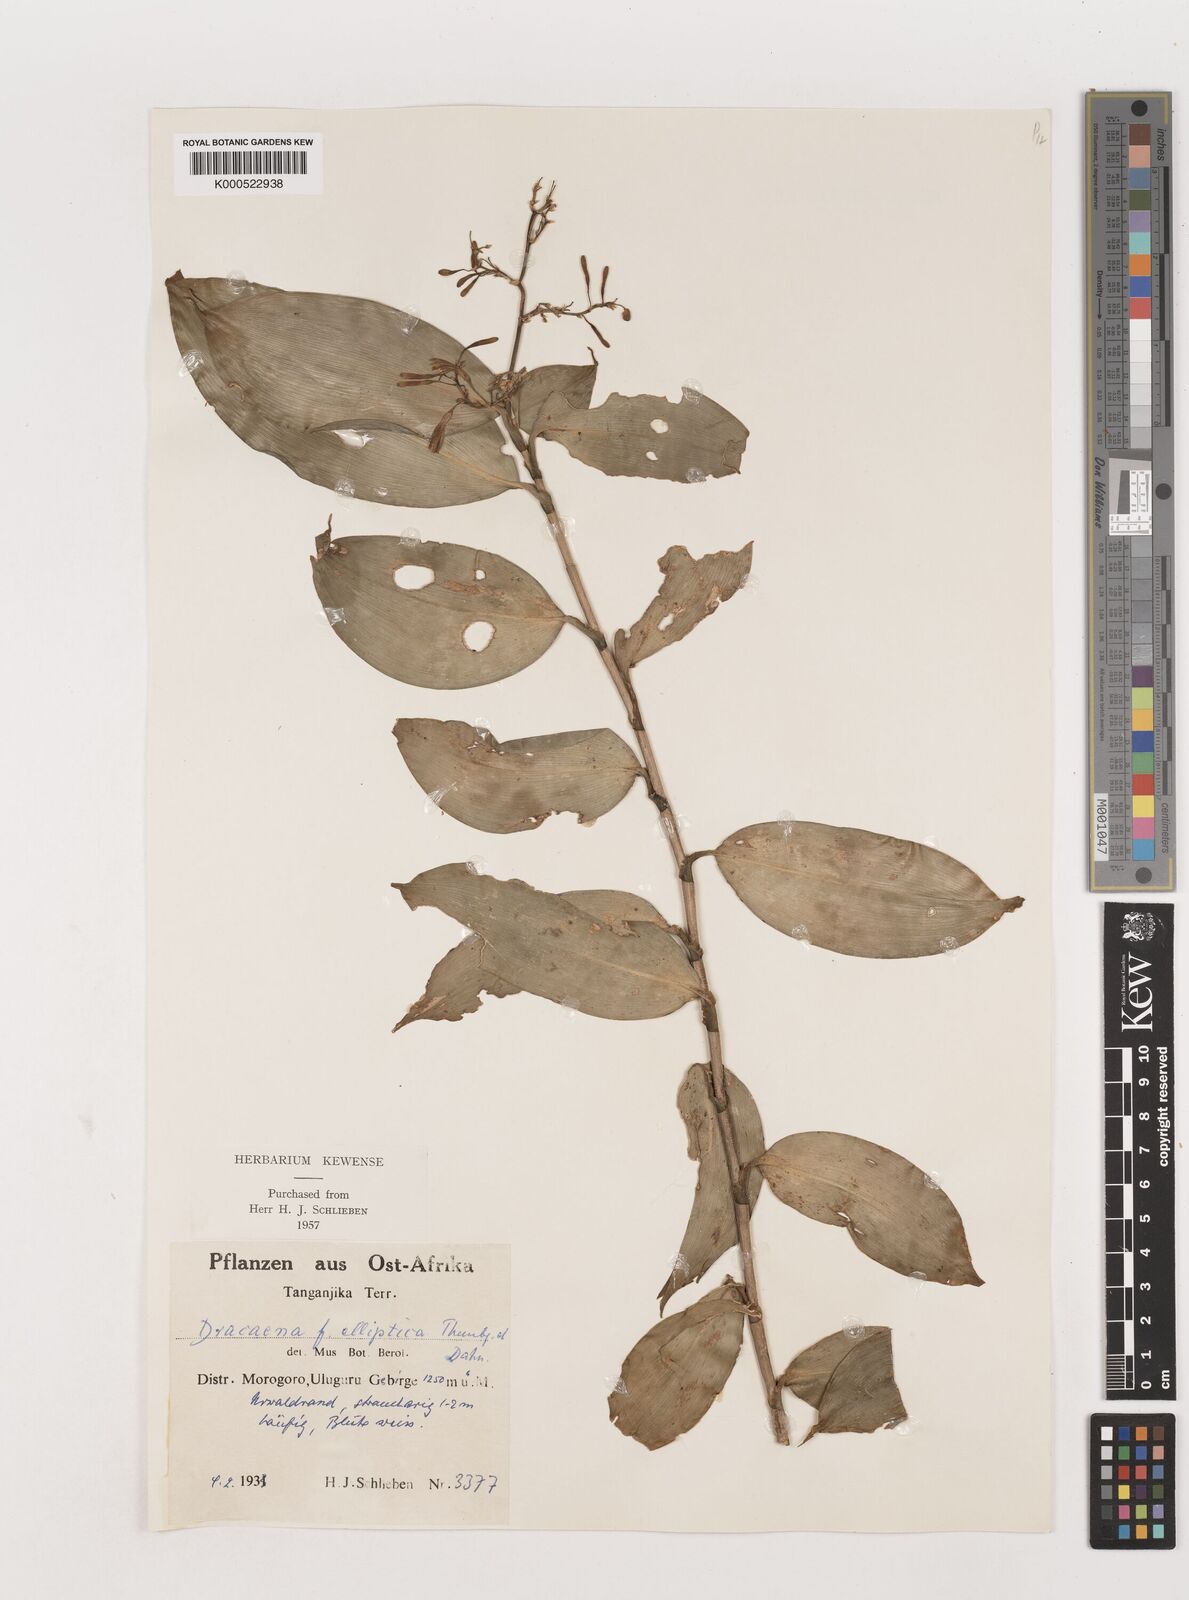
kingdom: Plantae
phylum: Tracheophyta
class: Liliopsida
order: Asparagales
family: Asparagaceae
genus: Dracaena
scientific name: Dracaena laxissima
